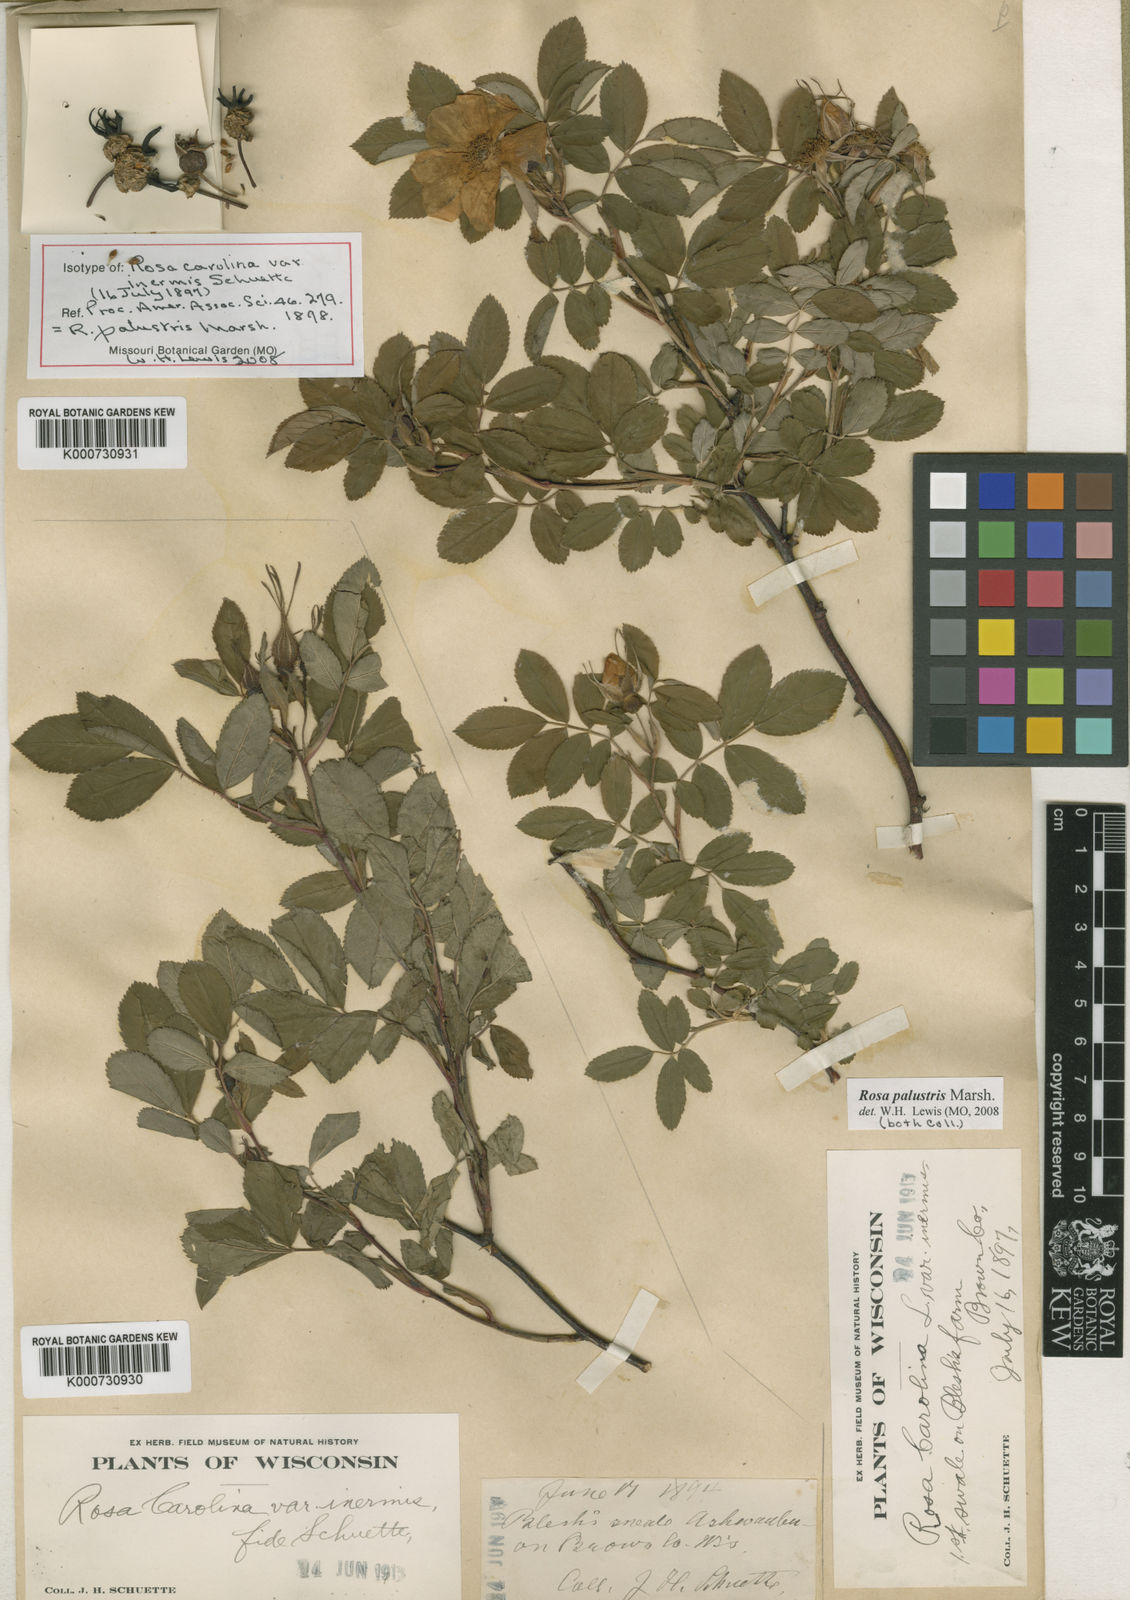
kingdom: Plantae
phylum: Tracheophyta
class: Magnoliopsida
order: Rosales
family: Rosaceae
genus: Rosa
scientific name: Rosa palustris
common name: Swamp rose
